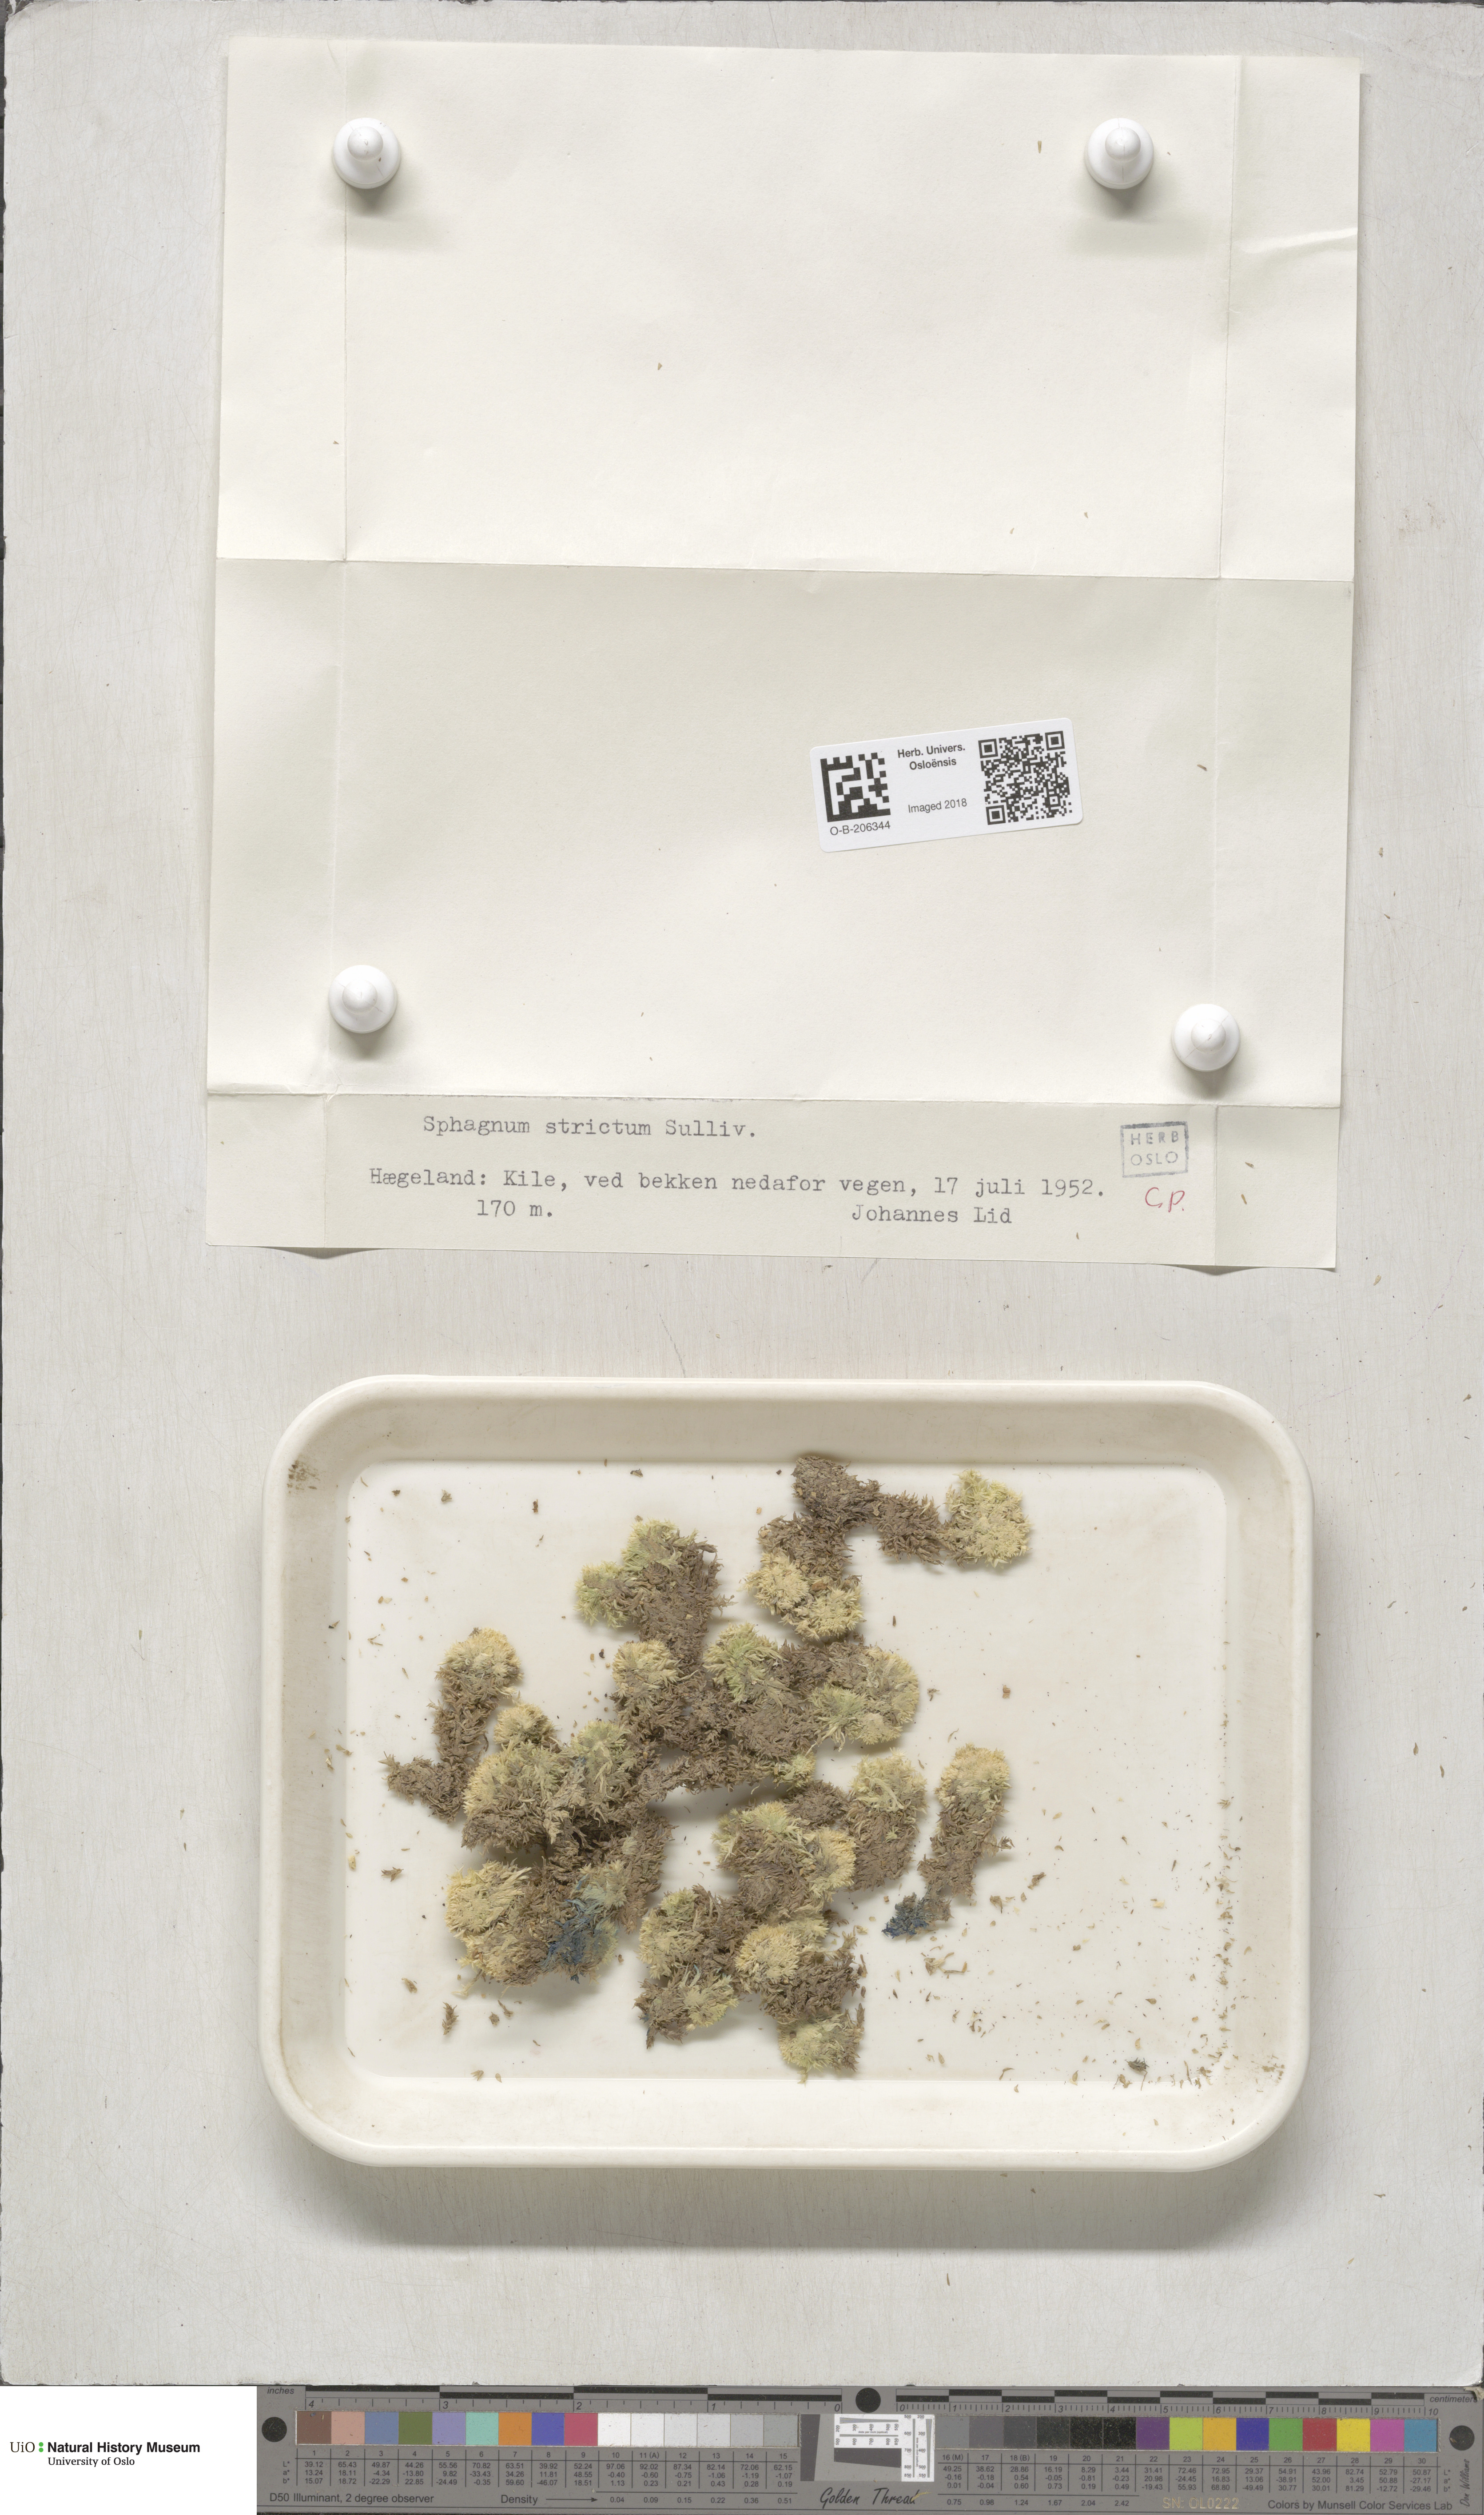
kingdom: Plantae
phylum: Bryophyta
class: Sphagnopsida
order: Sphagnales
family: Sphagnaceae
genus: Sphagnum
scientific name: Sphagnum strictum
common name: Pale bog-moss
